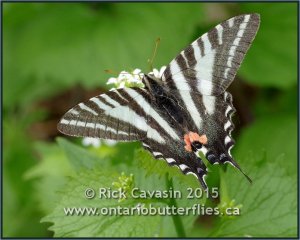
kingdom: Animalia
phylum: Arthropoda
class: Insecta
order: Lepidoptera
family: Papilionidae
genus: Protographium
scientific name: Protographium marcellus
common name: Zebra Swallowtail
